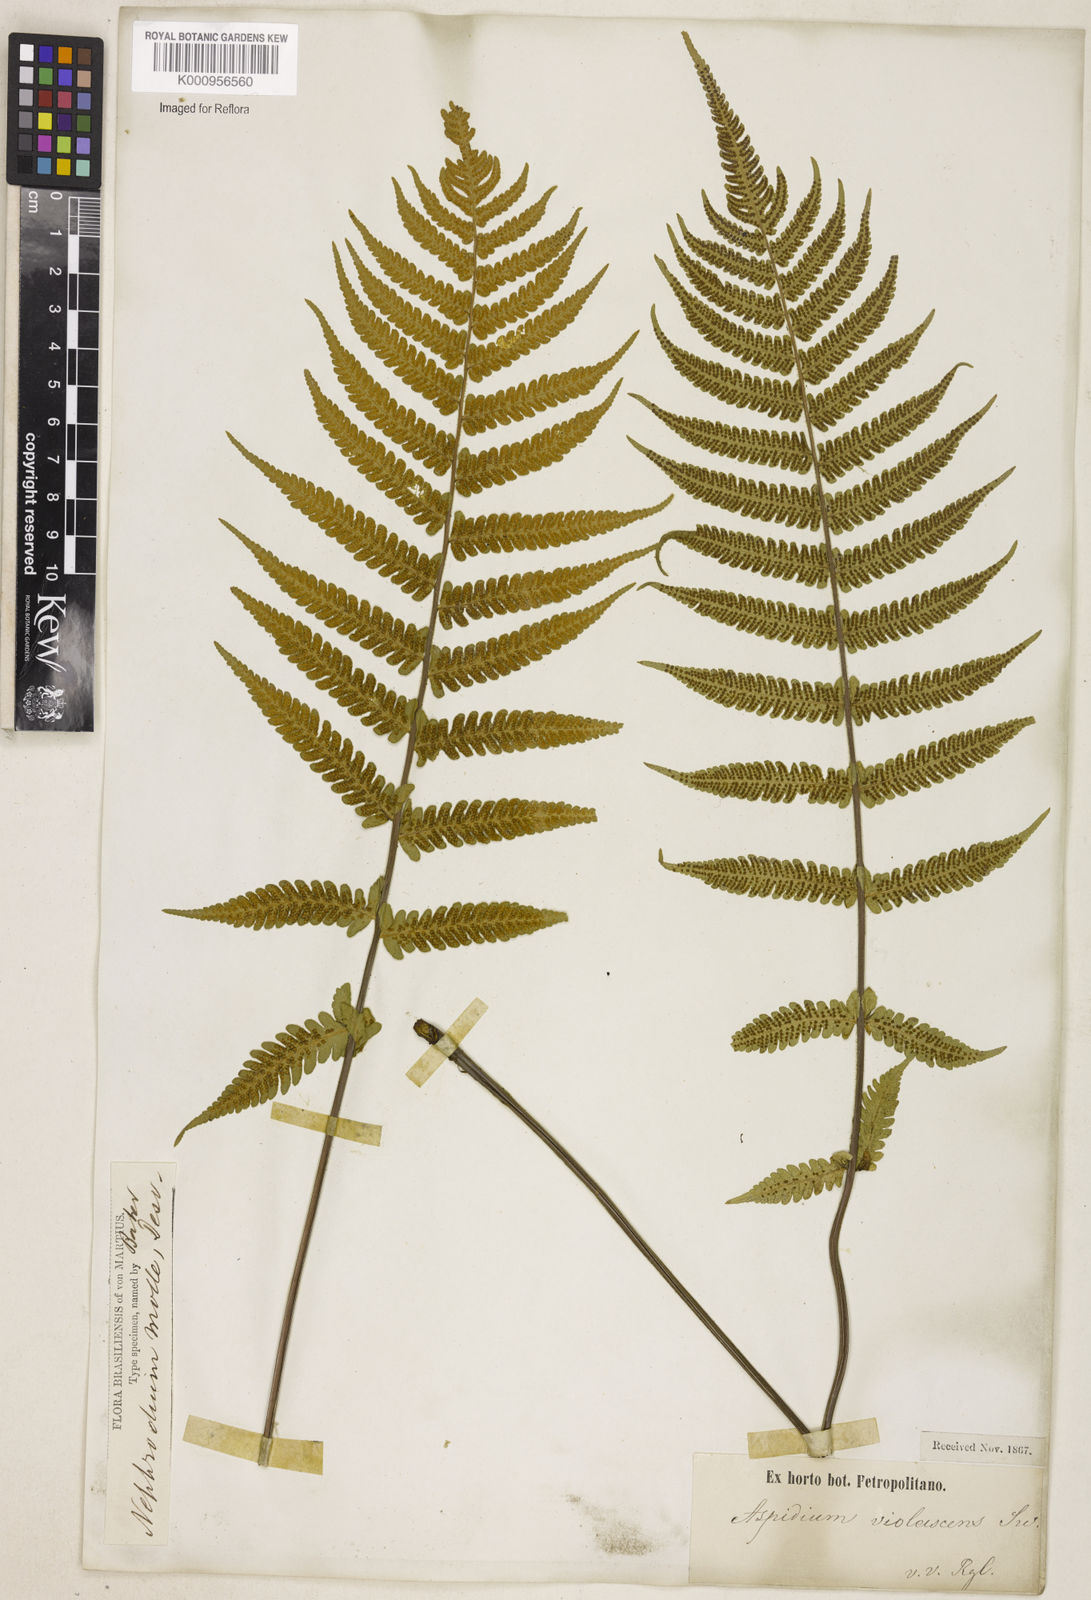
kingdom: Plantae
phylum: Tracheophyta
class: Polypodiopsida
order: Polypodiales
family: Thelypteridaceae
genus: Christella
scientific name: Christella hispidula
